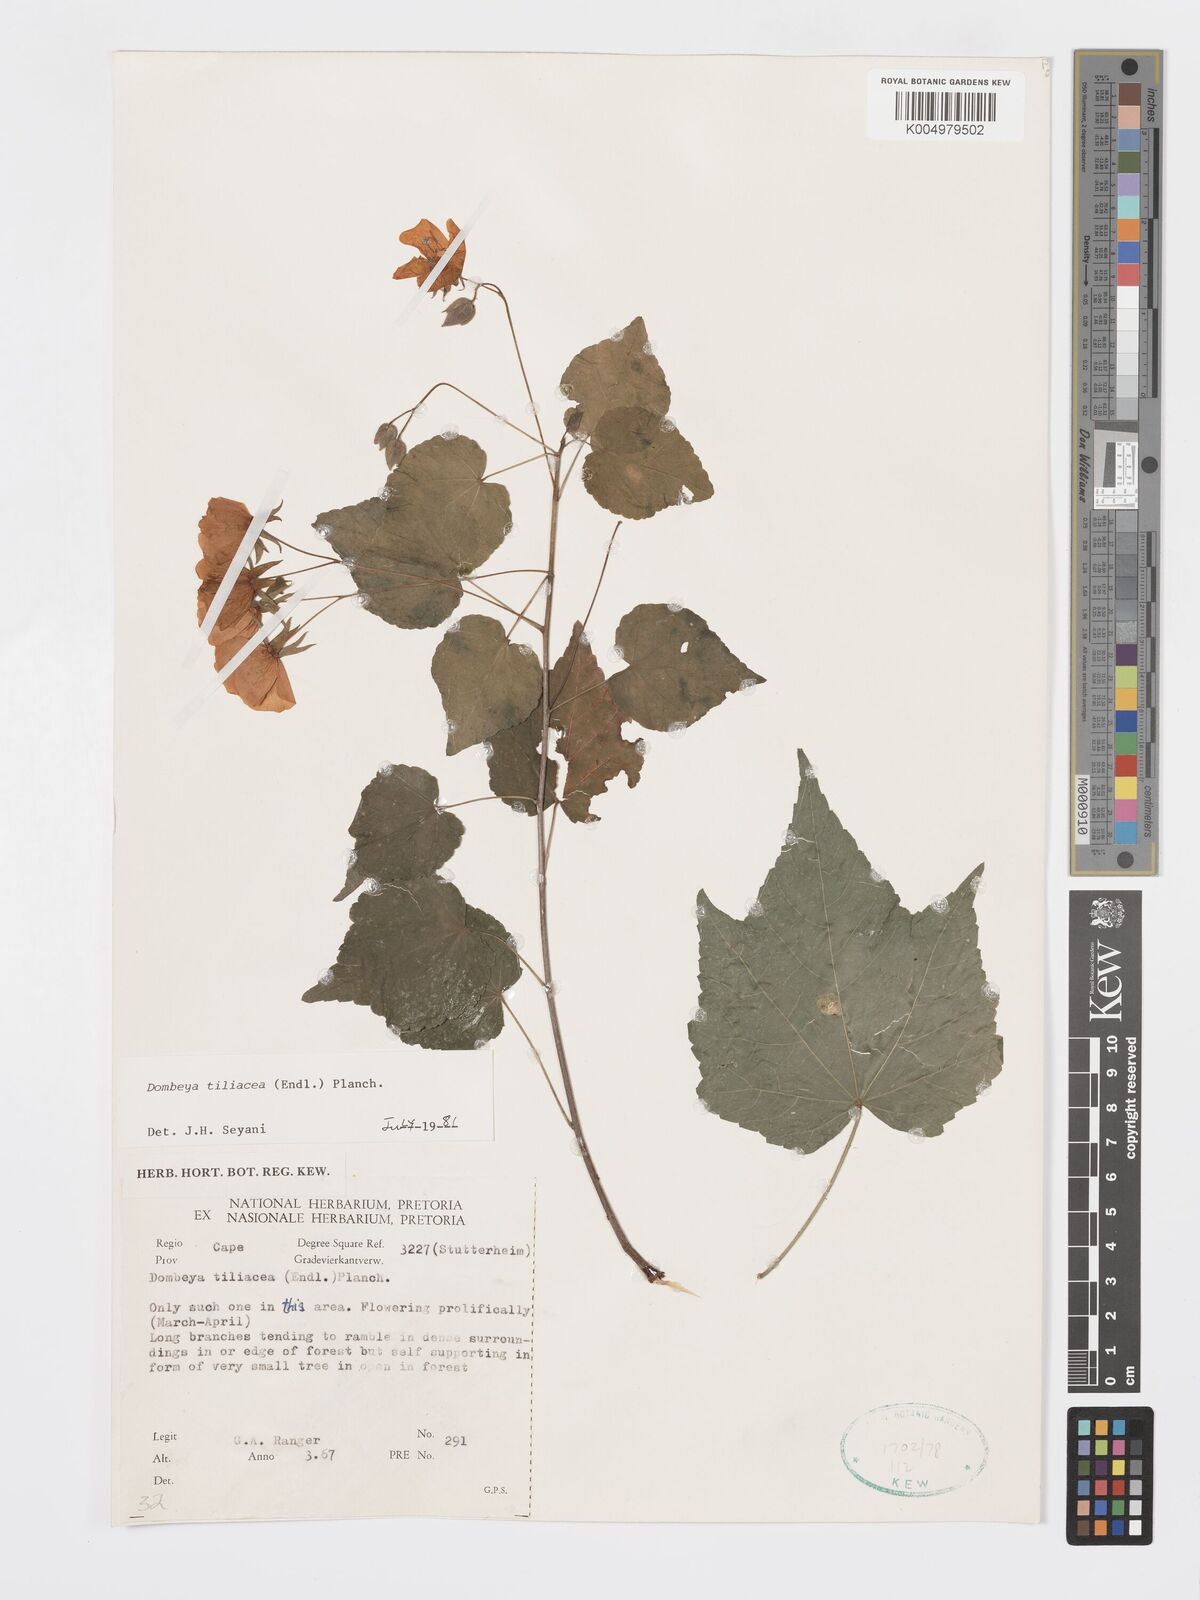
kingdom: Plantae
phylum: Tracheophyta
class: Magnoliopsida
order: Malvales
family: Malvaceae
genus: Dombeya
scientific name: Dombeya tiliacea
